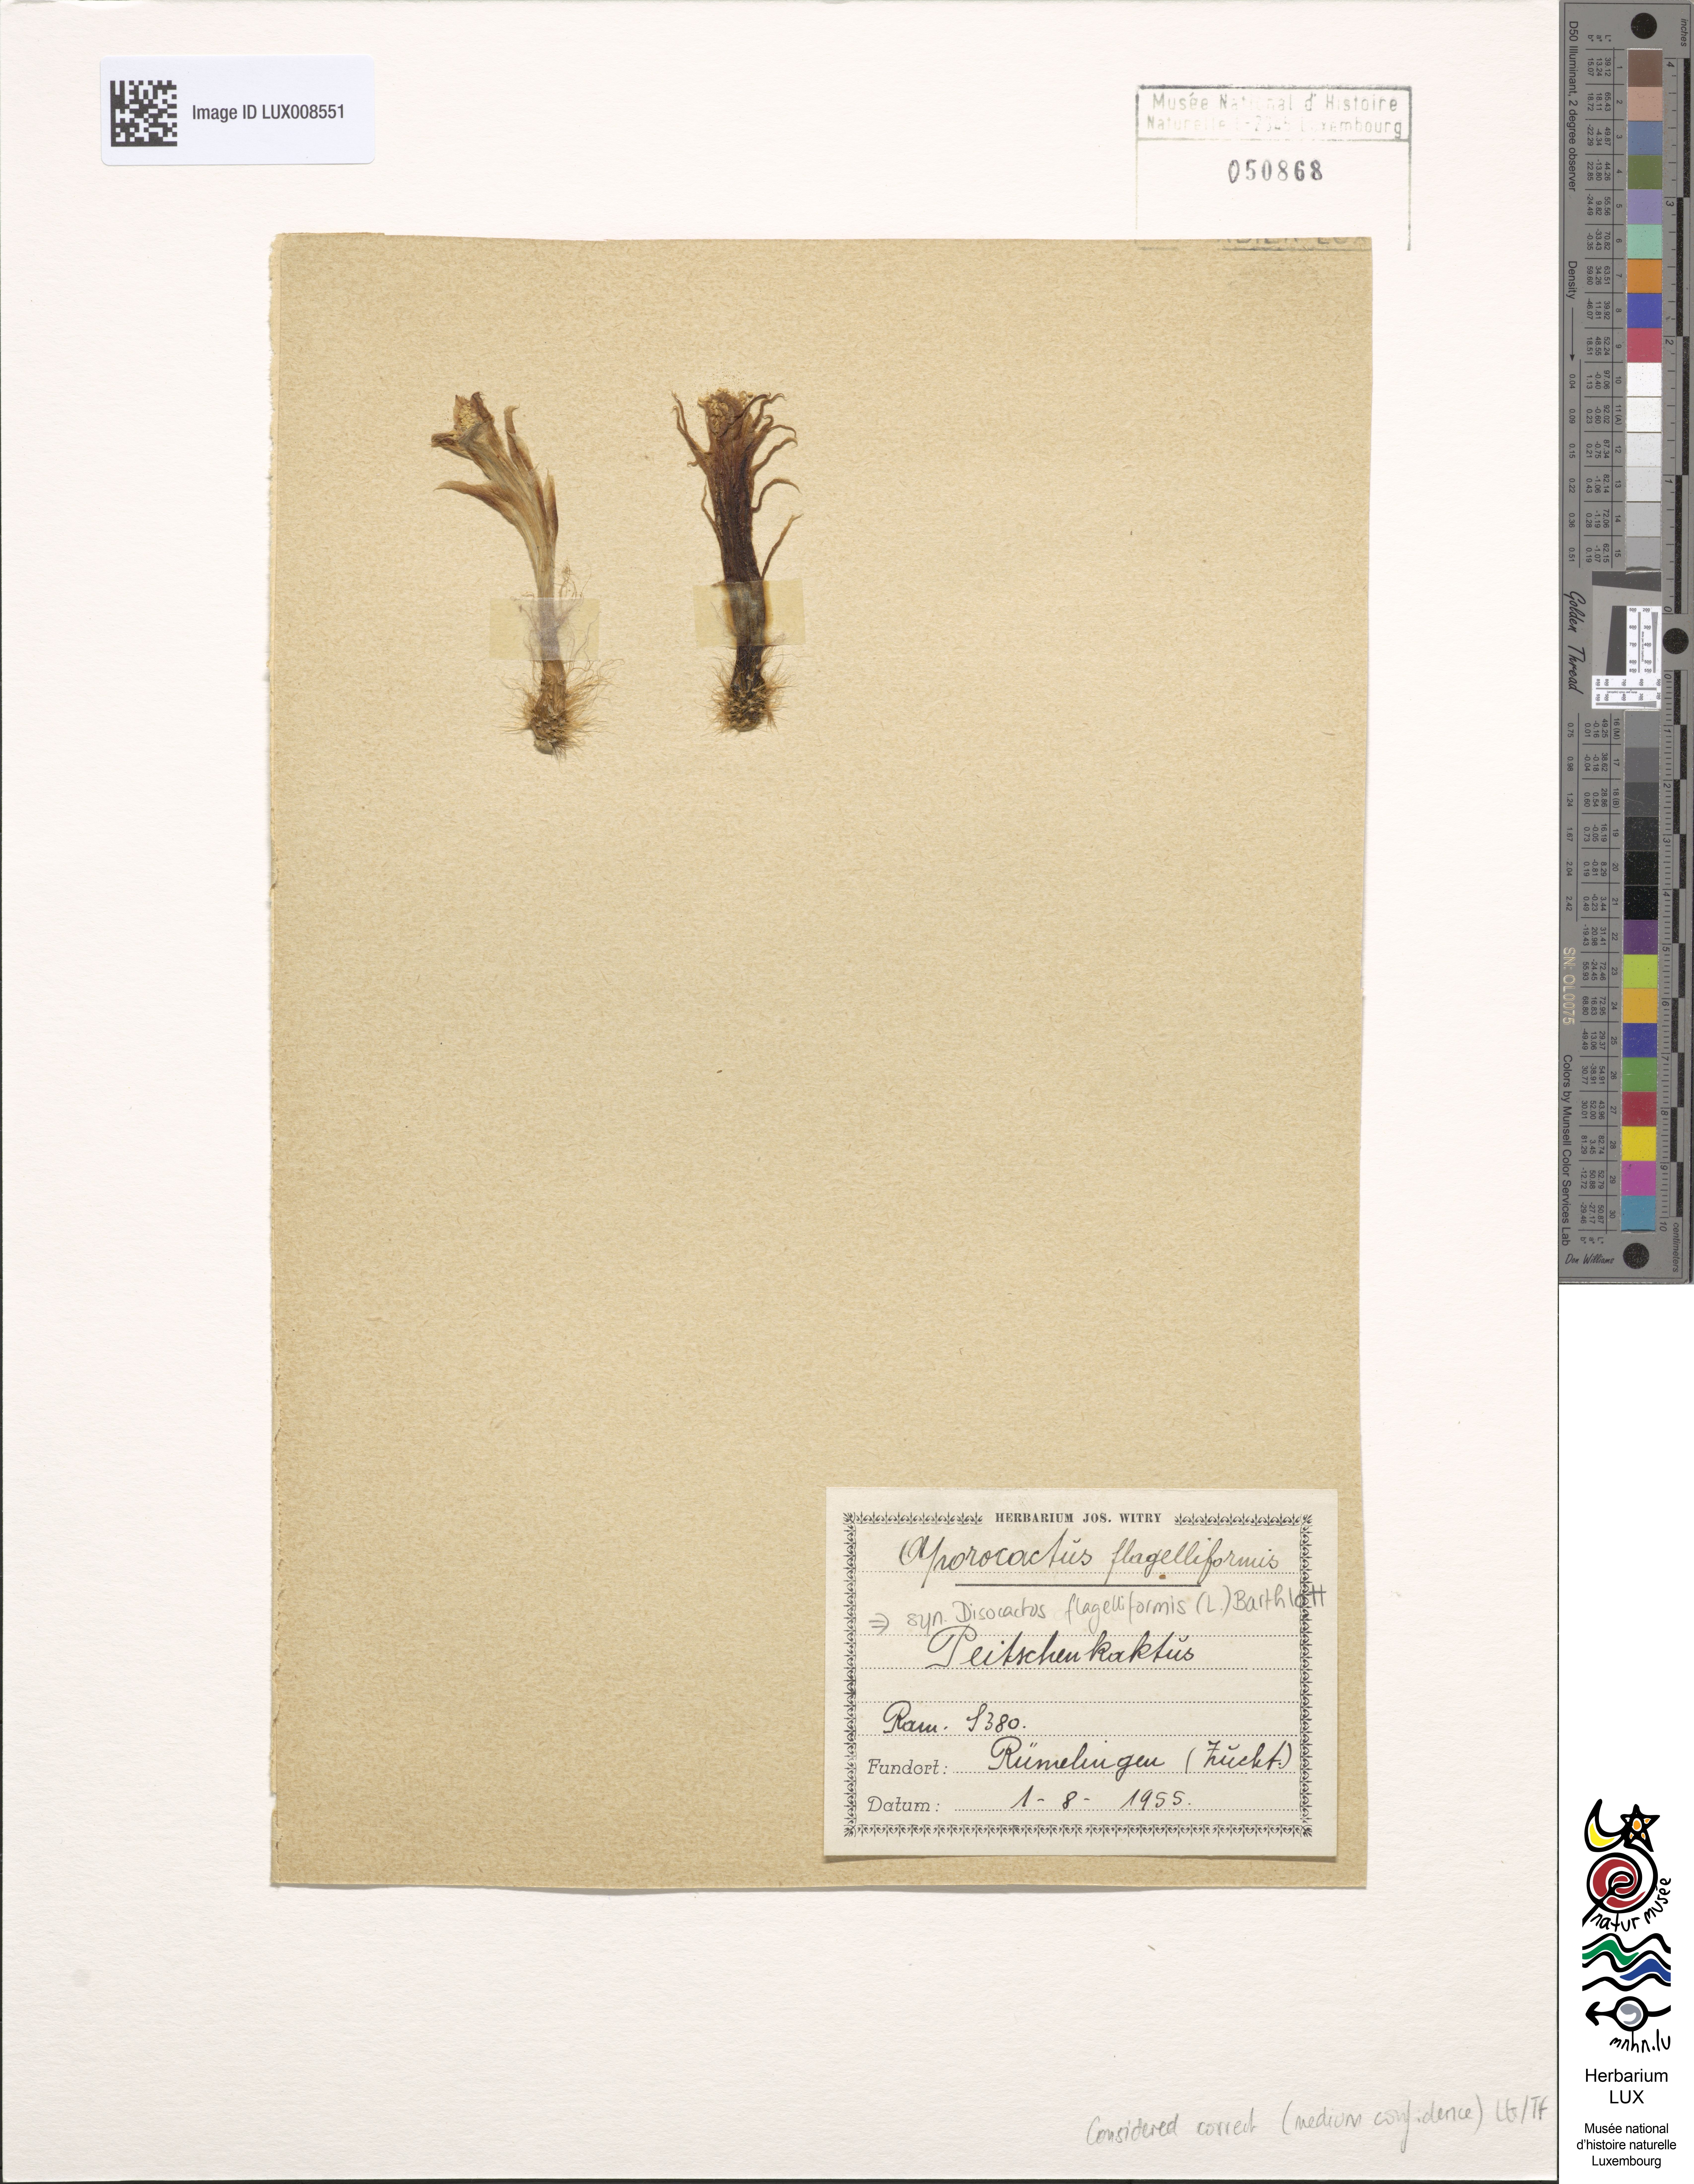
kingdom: Plantae
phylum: Tracheophyta
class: Magnoliopsida
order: Caryophyllales
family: Cactaceae
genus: Aporocactus
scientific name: Aporocactus flagelliformis
